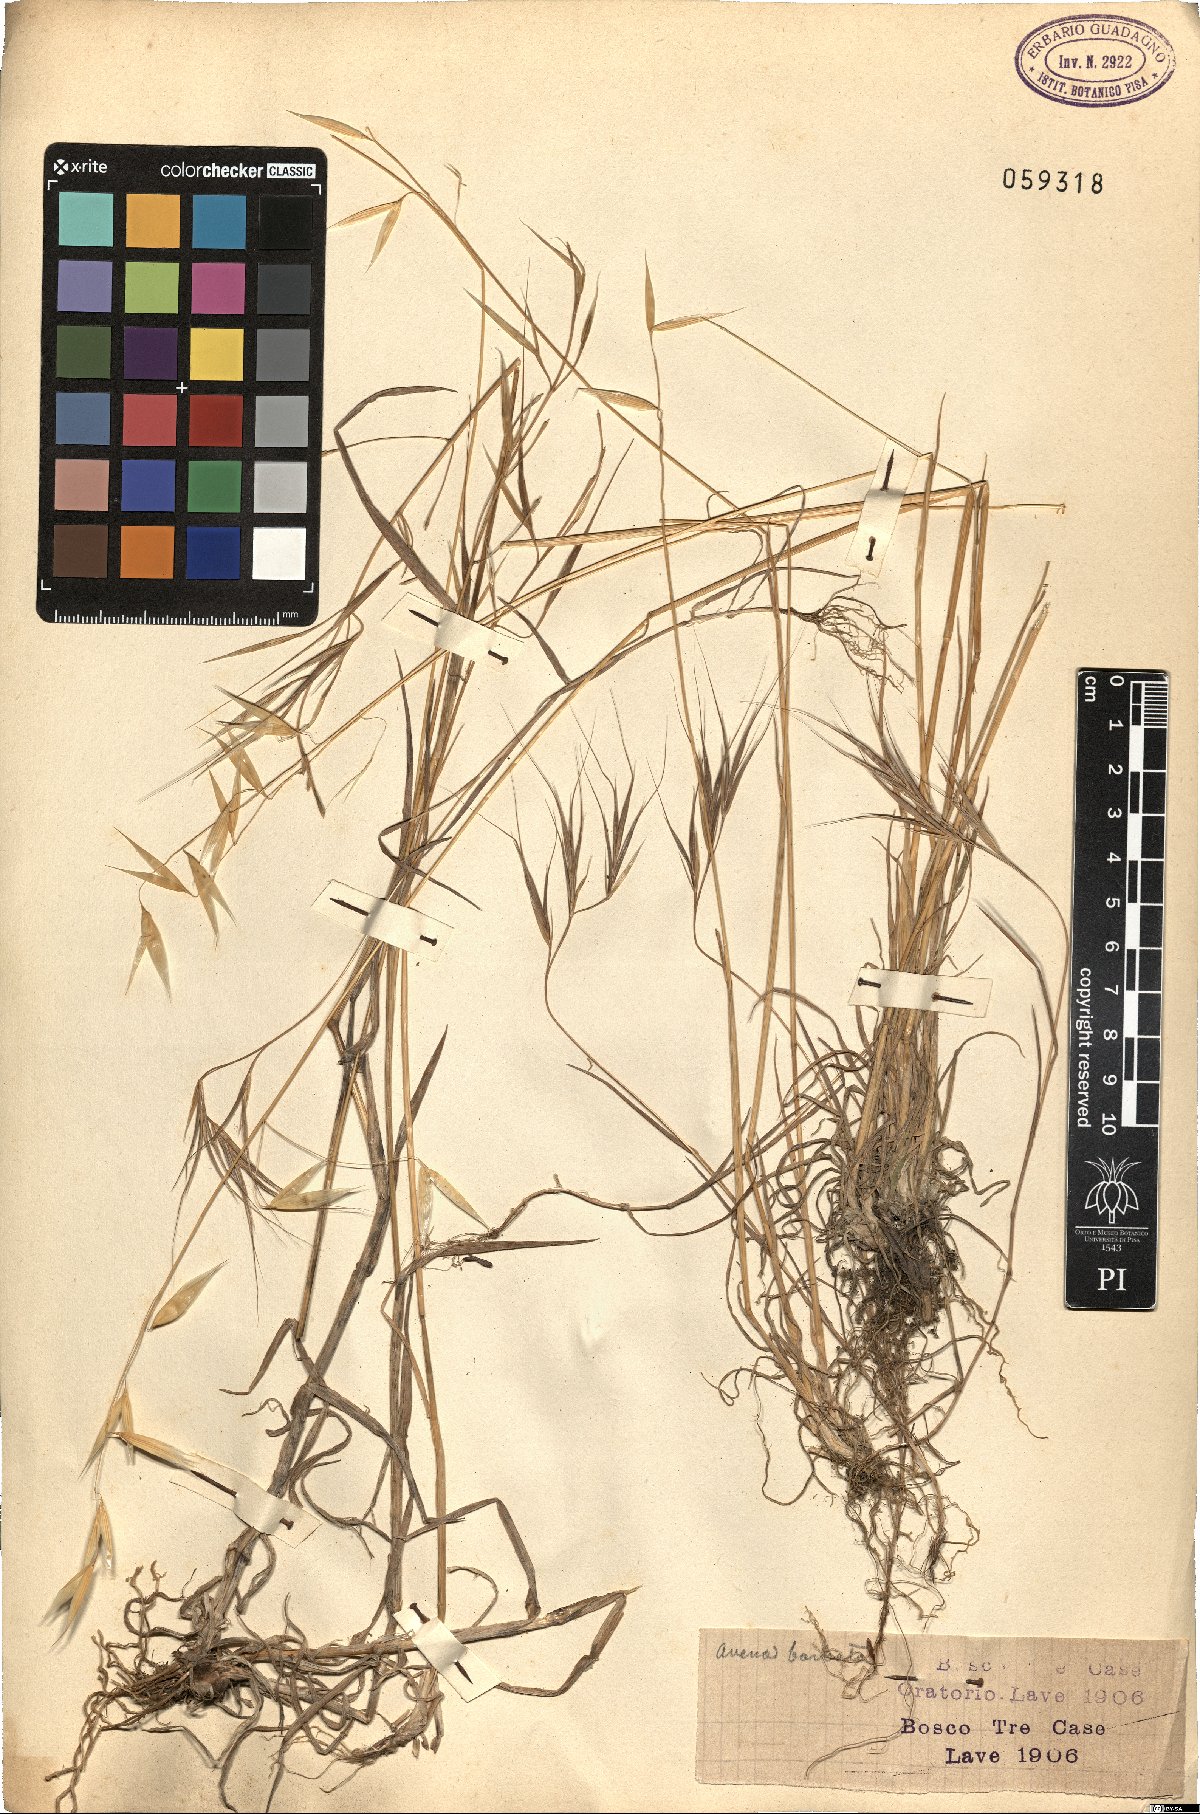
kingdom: Plantae
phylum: Tracheophyta
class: Liliopsida
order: Poales
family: Poaceae
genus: Avena
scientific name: Avena barbata
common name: Slender oat
